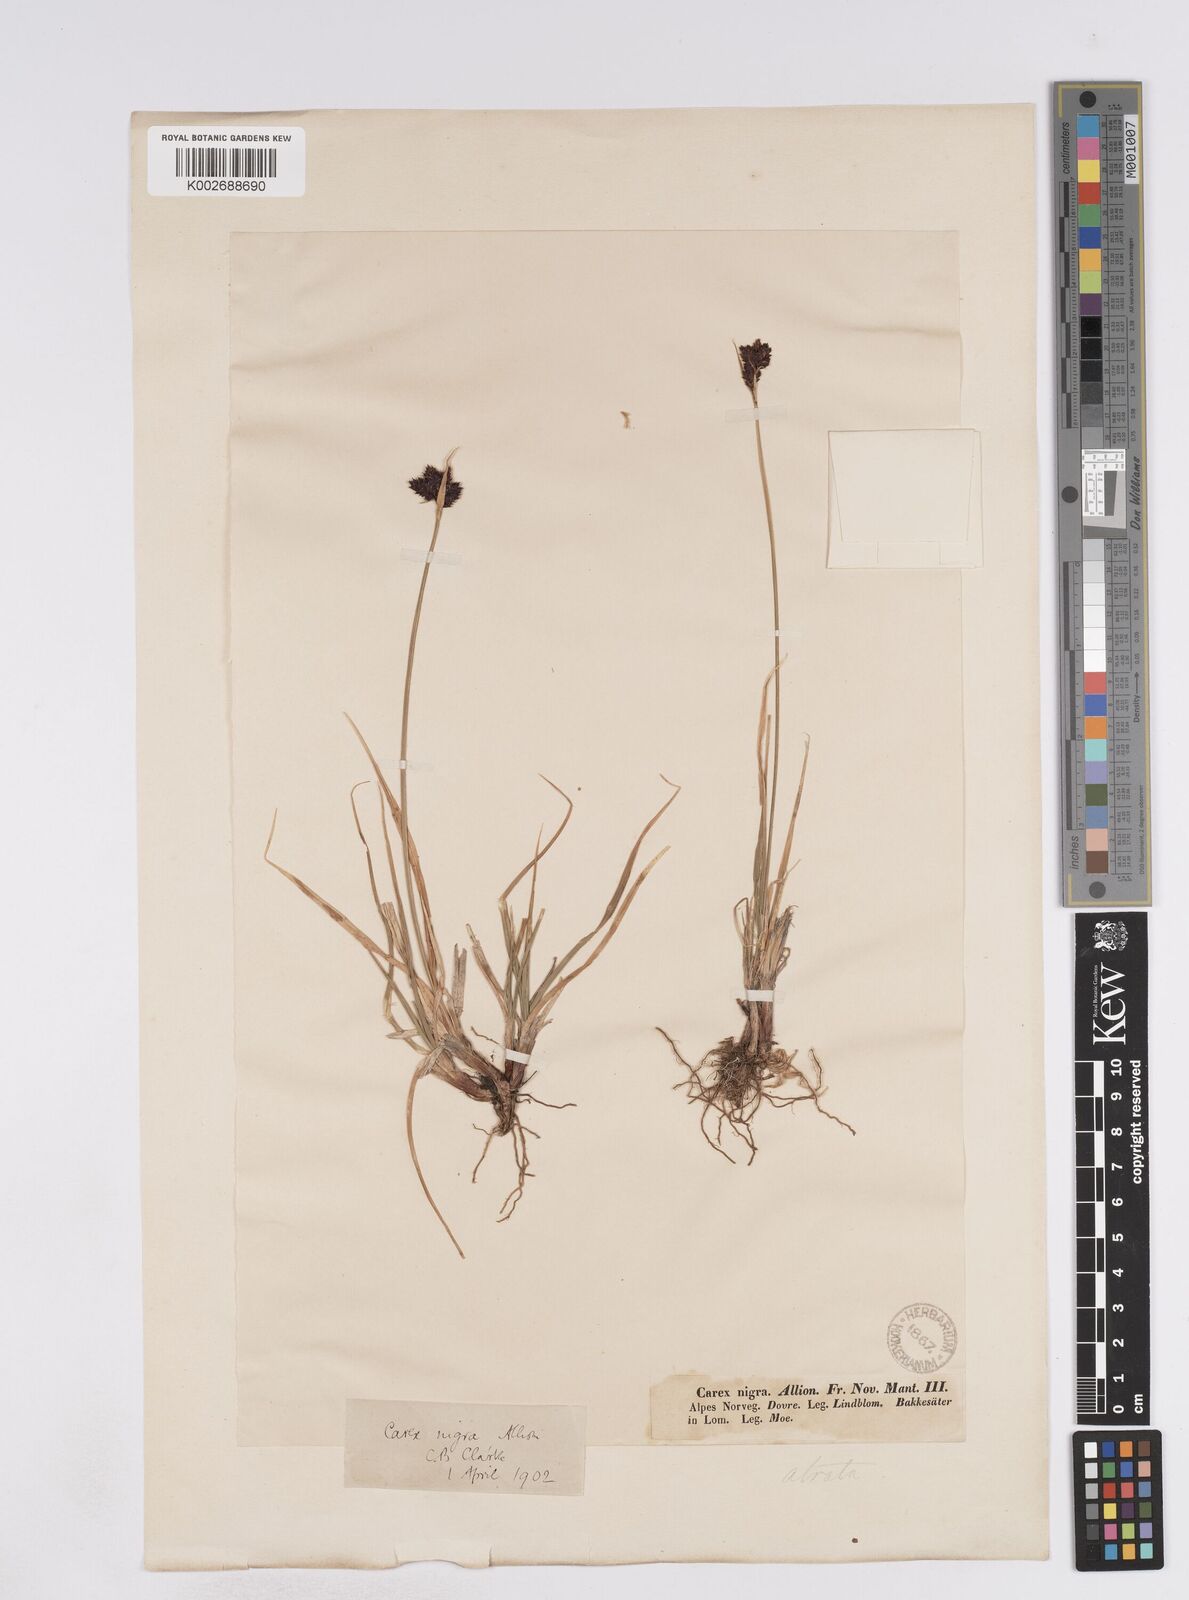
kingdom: Plantae
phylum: Tracheophyta
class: Liliopsida
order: Poales
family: Cyperaceae
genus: Carex
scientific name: Carex parviflora
